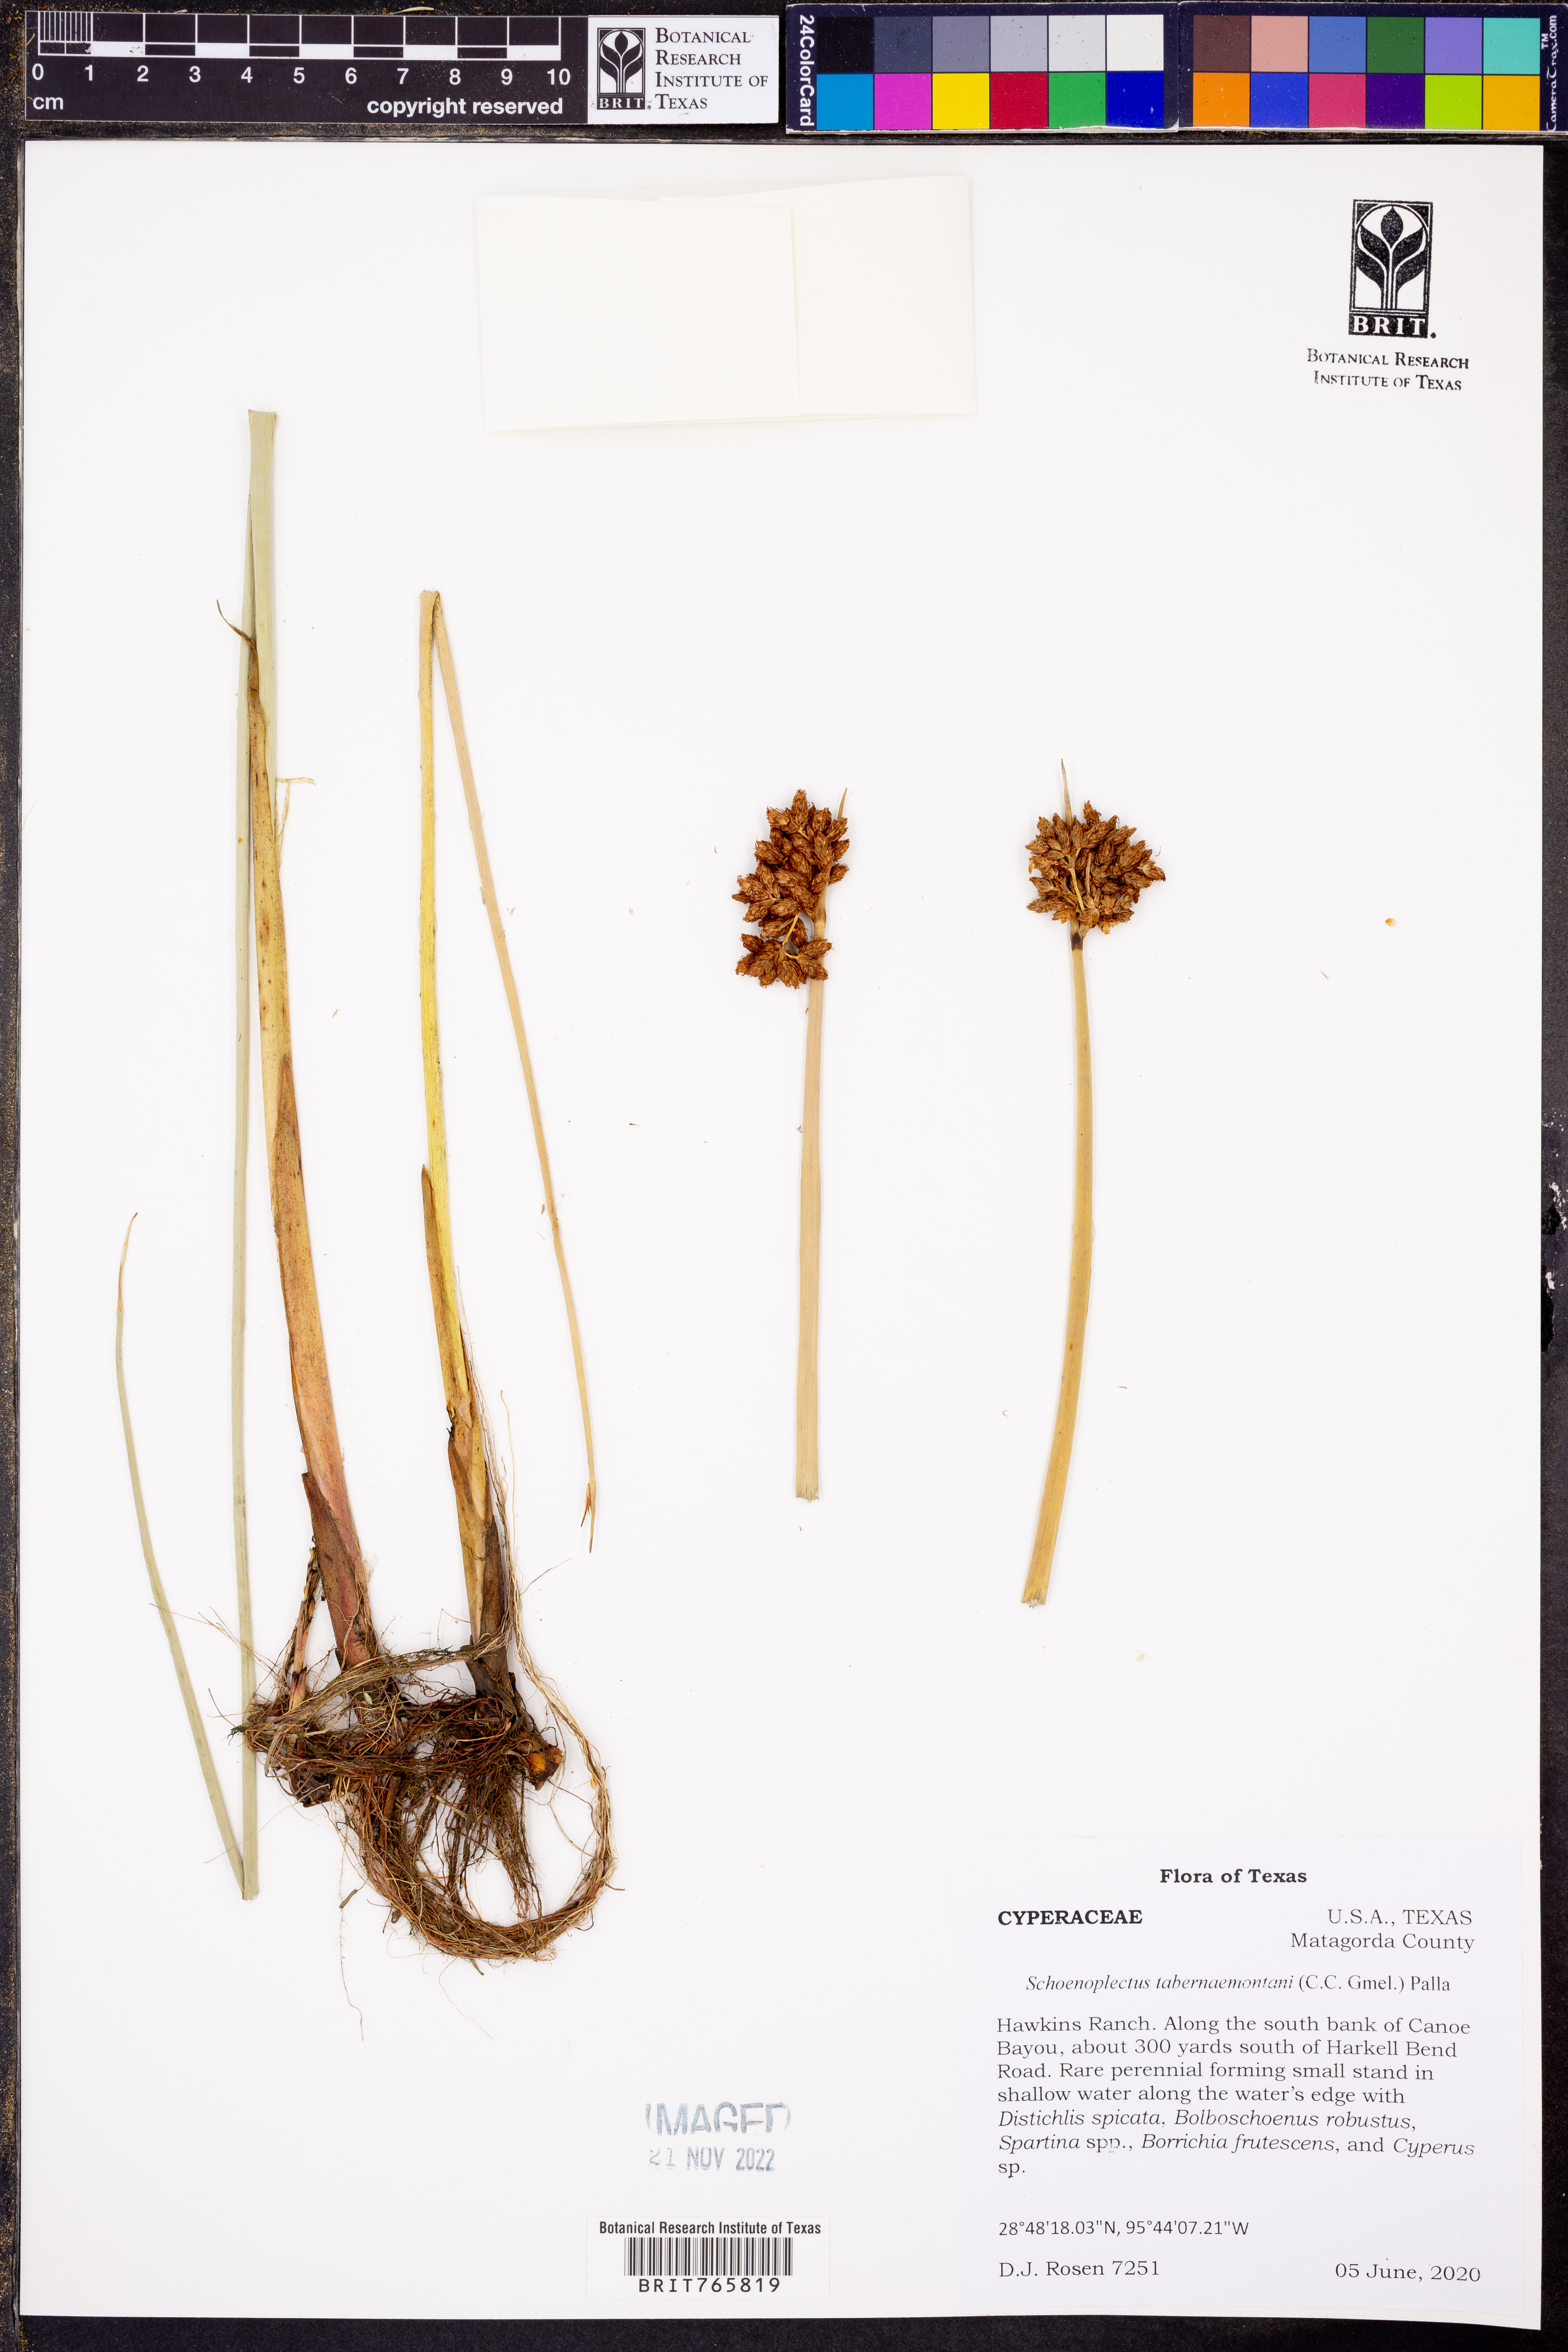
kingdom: Plantae
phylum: Tracheophyta
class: Liliopsida
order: Poales
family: Cyperaceae
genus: Schoenoplectus
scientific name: Schoenoplectus tabernaemontani
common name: Grey club-rush
